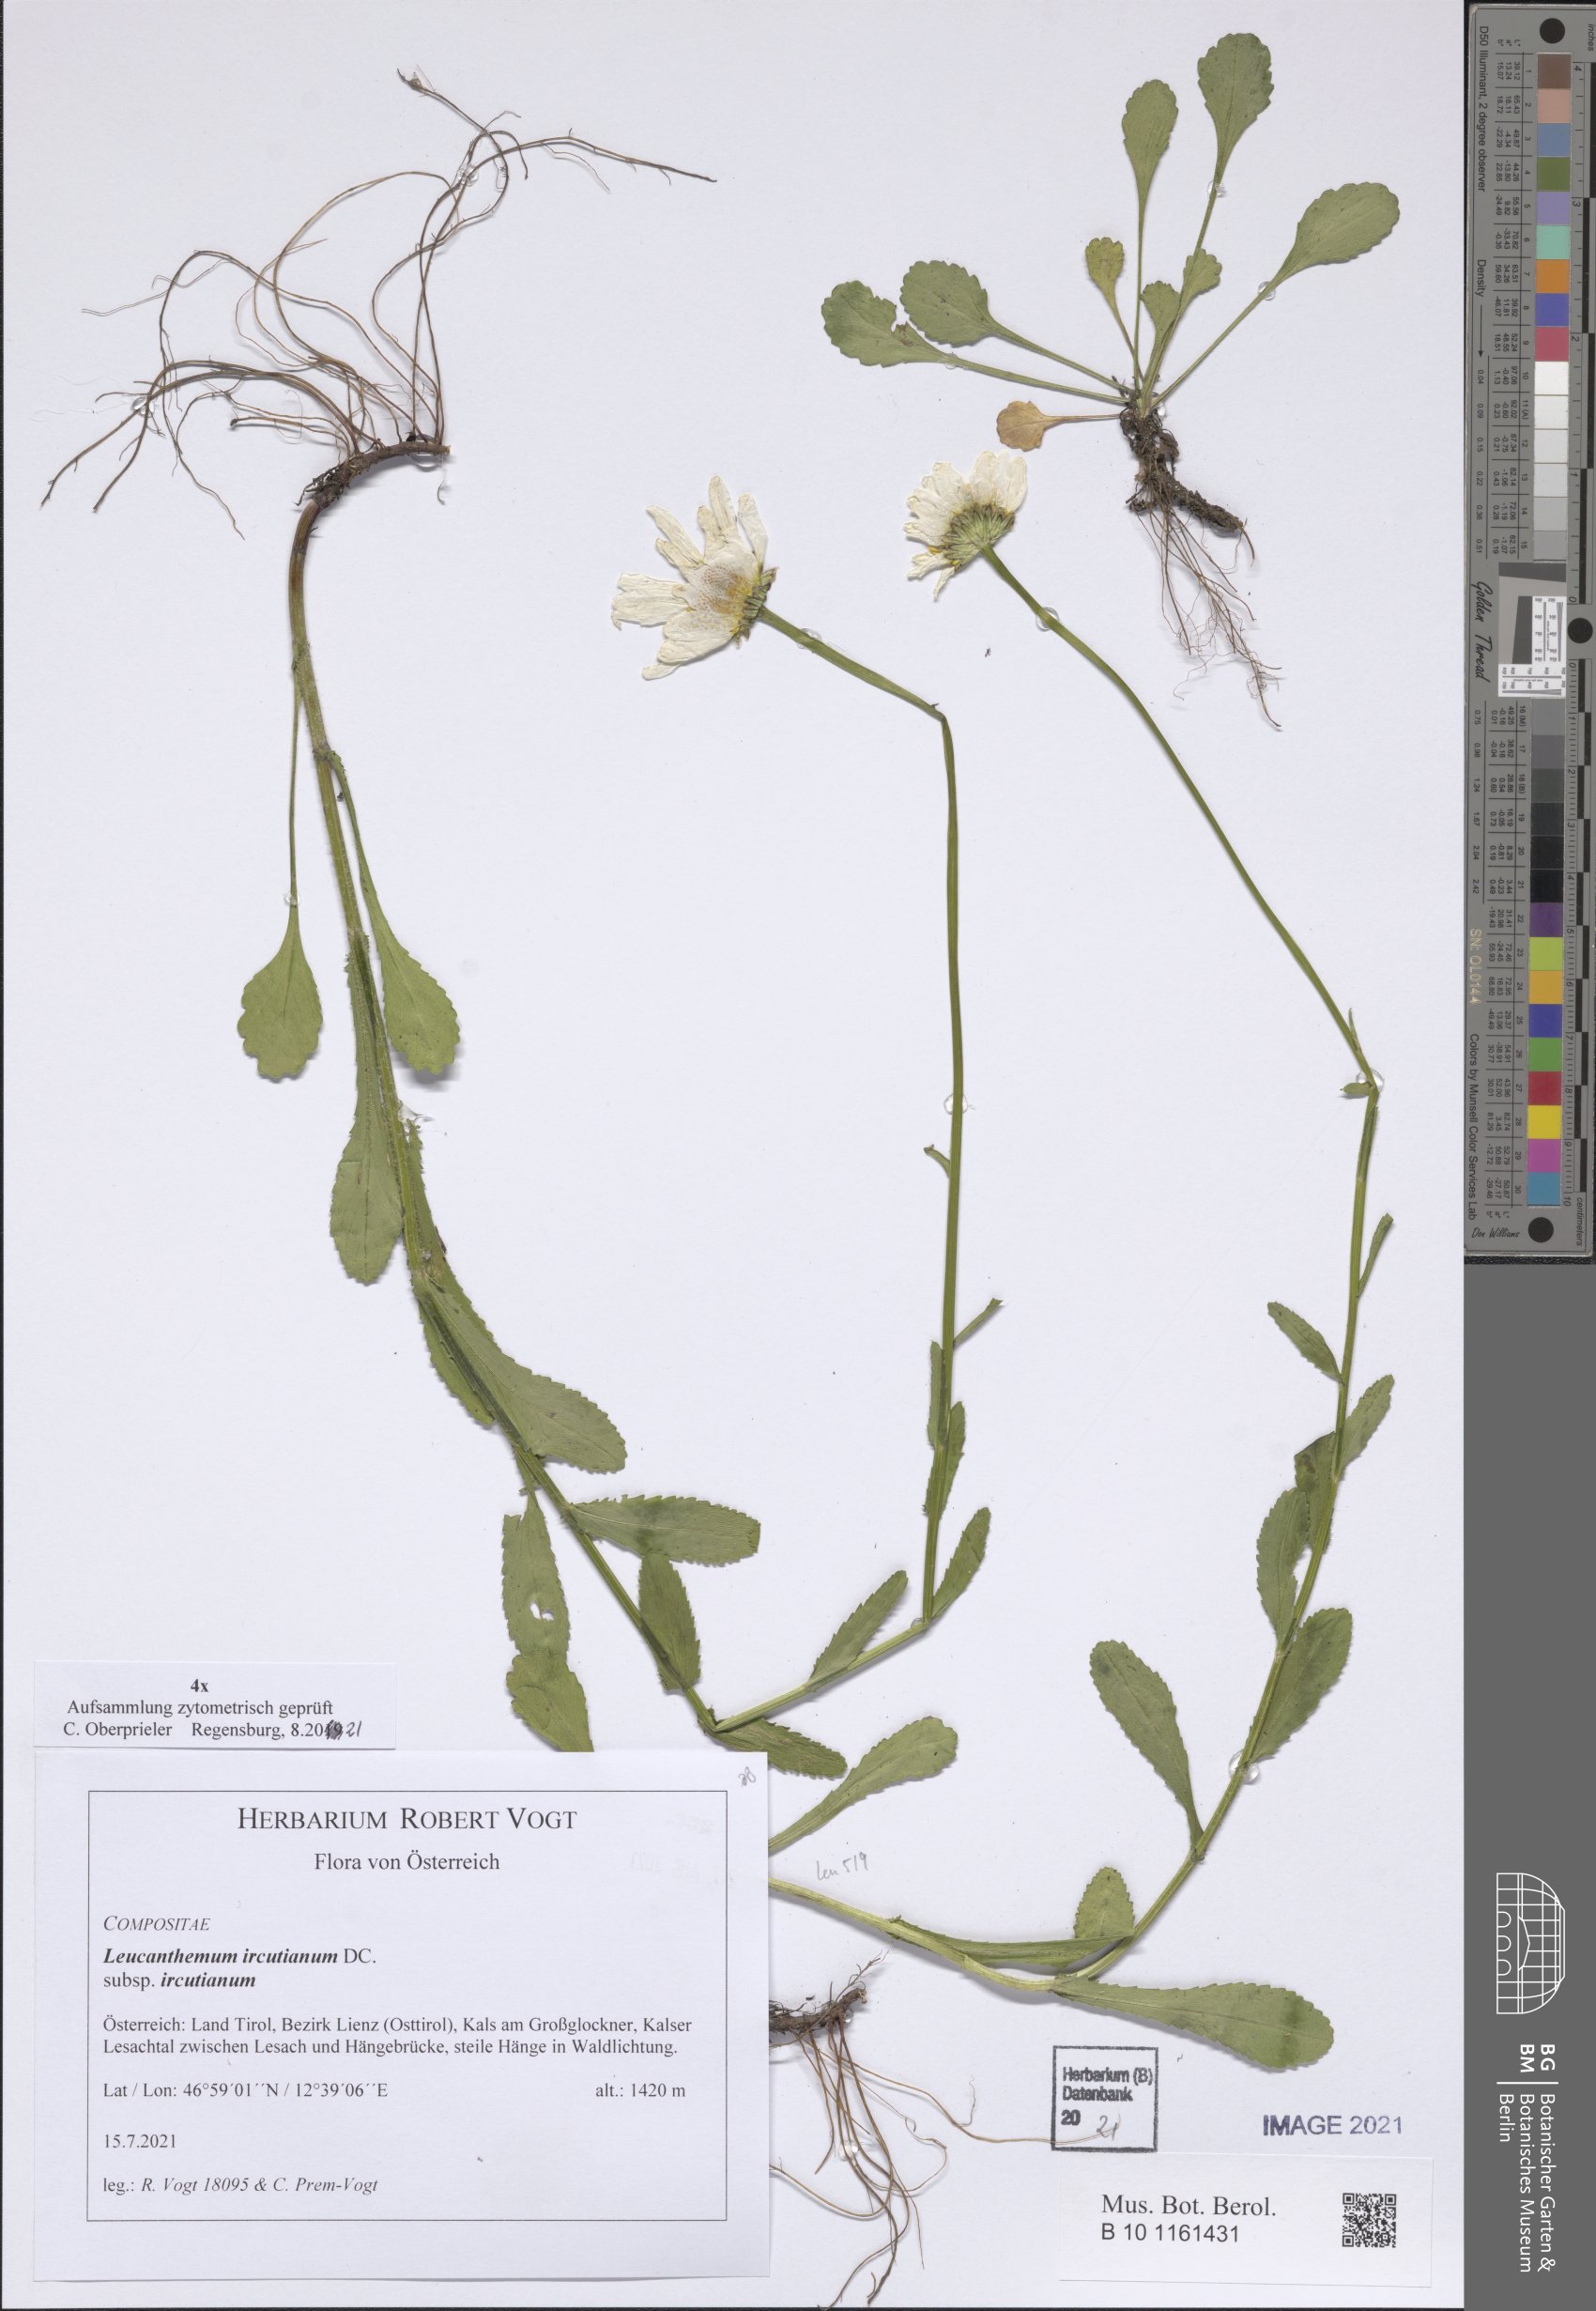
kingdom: Plantae
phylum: Tracheophyta
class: Magnoliopsida
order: Asterales
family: Asteraceae
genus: Leucanthemum
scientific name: Leucanthemum ircutianum
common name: Daisy
